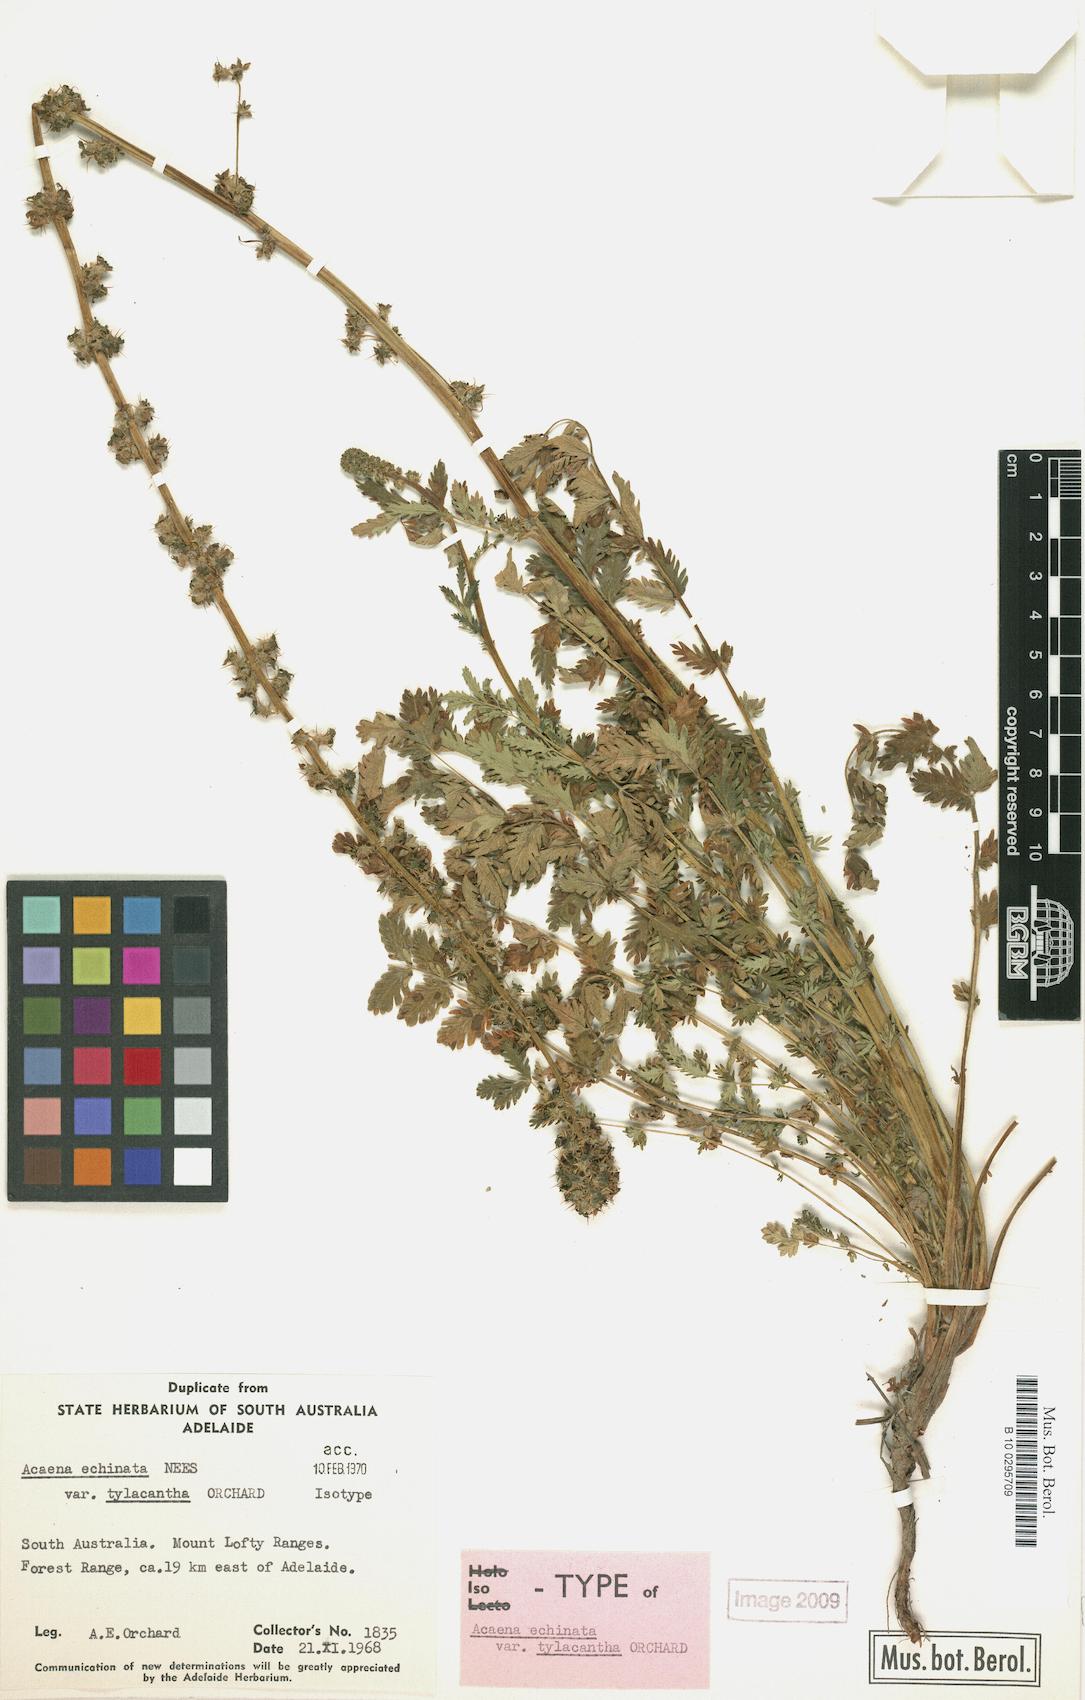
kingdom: Plantae
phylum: Tracheophyta
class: Magnoliopsida
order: Rosales
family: Rosaceae
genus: Acaena
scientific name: Acaena echinata
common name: Sheepbur
